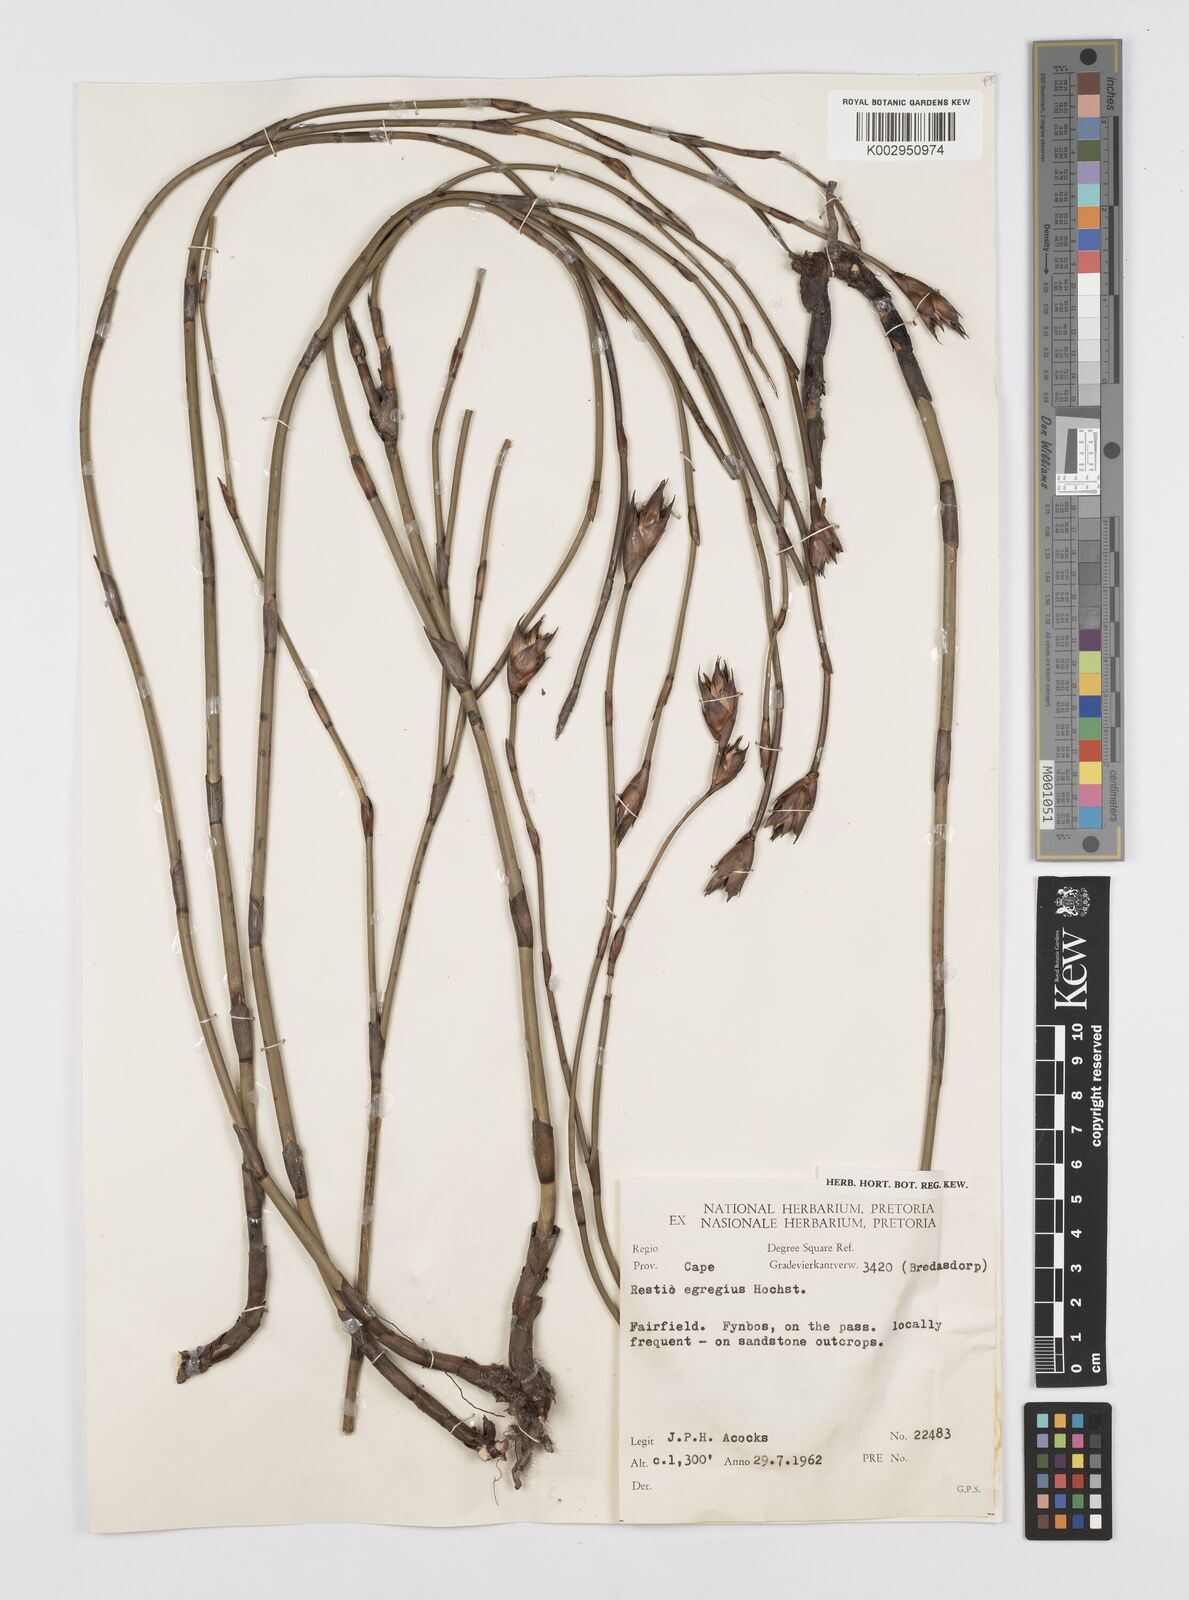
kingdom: Plantae
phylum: Tracheophyta
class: Liliopsida
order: Poales
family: Restionaceae
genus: Restio
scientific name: Restio egregius
